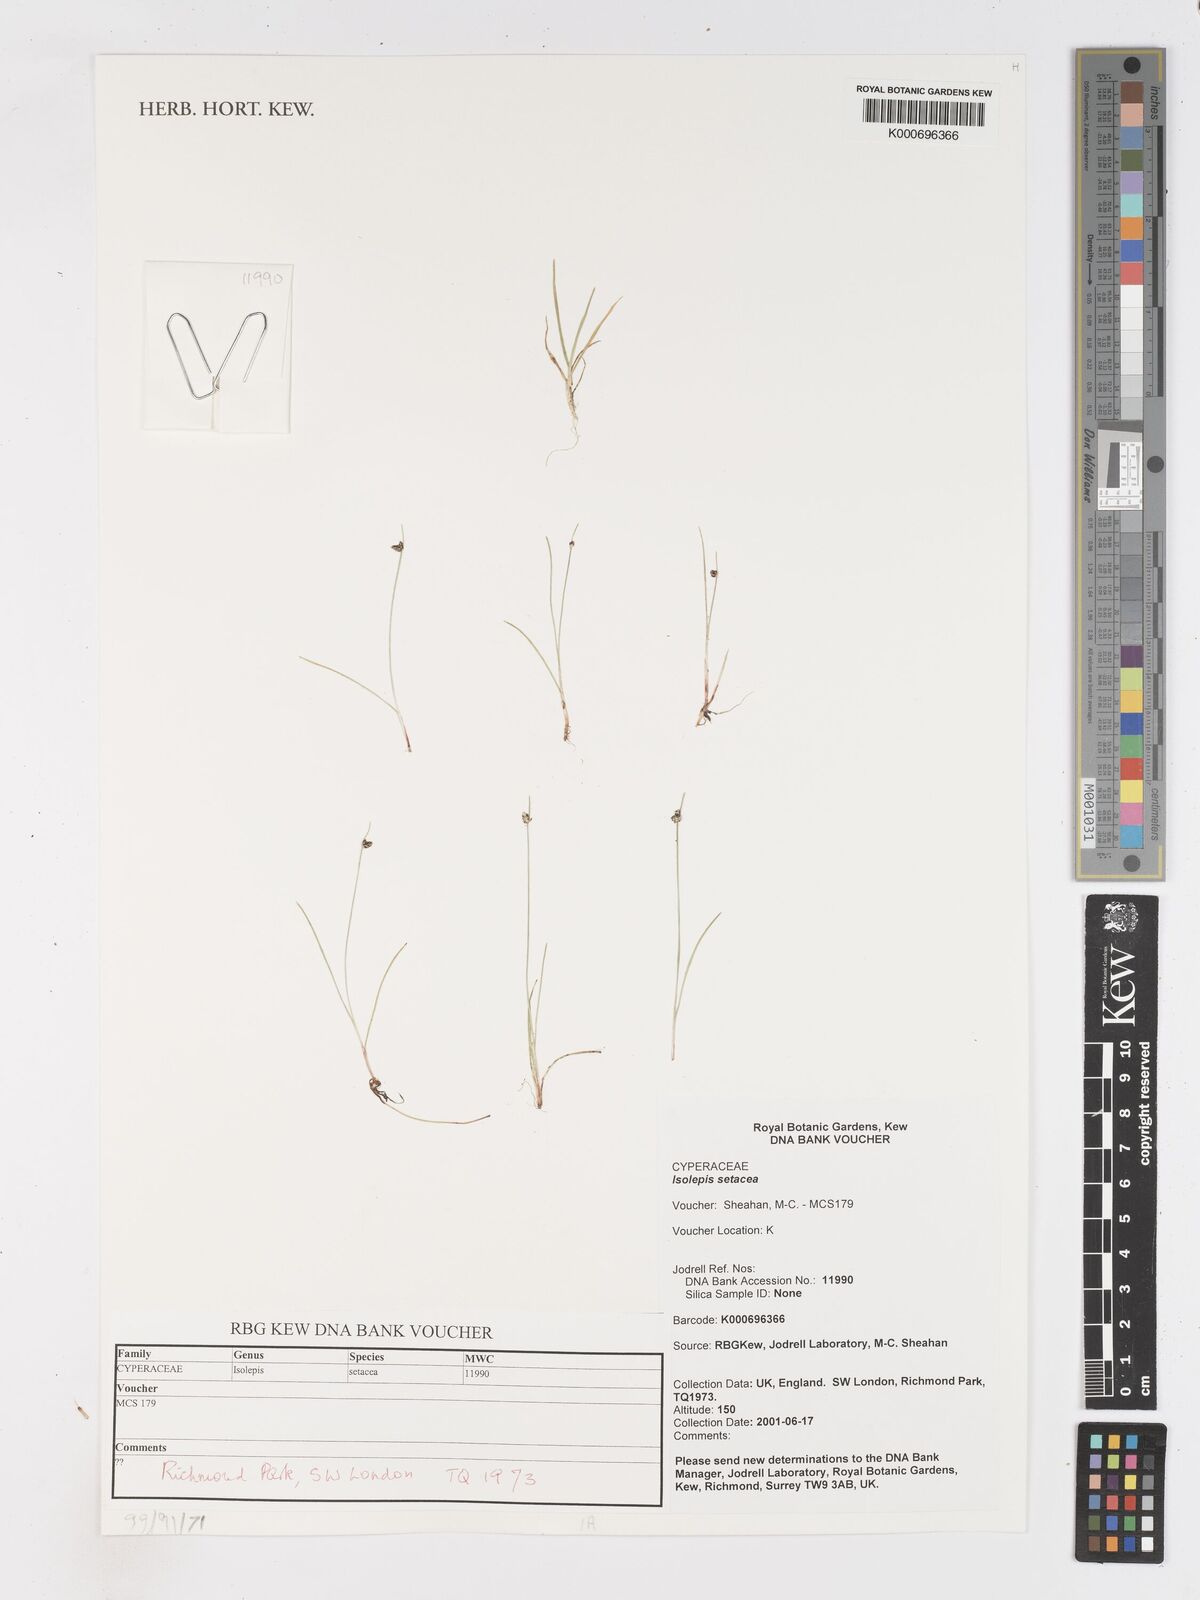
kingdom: Plantae
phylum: Tracheophyta
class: Liliopsida
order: Poales
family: Cyperaceae
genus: Isolepis
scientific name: Isolepis setacea
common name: Bristle club-rush
